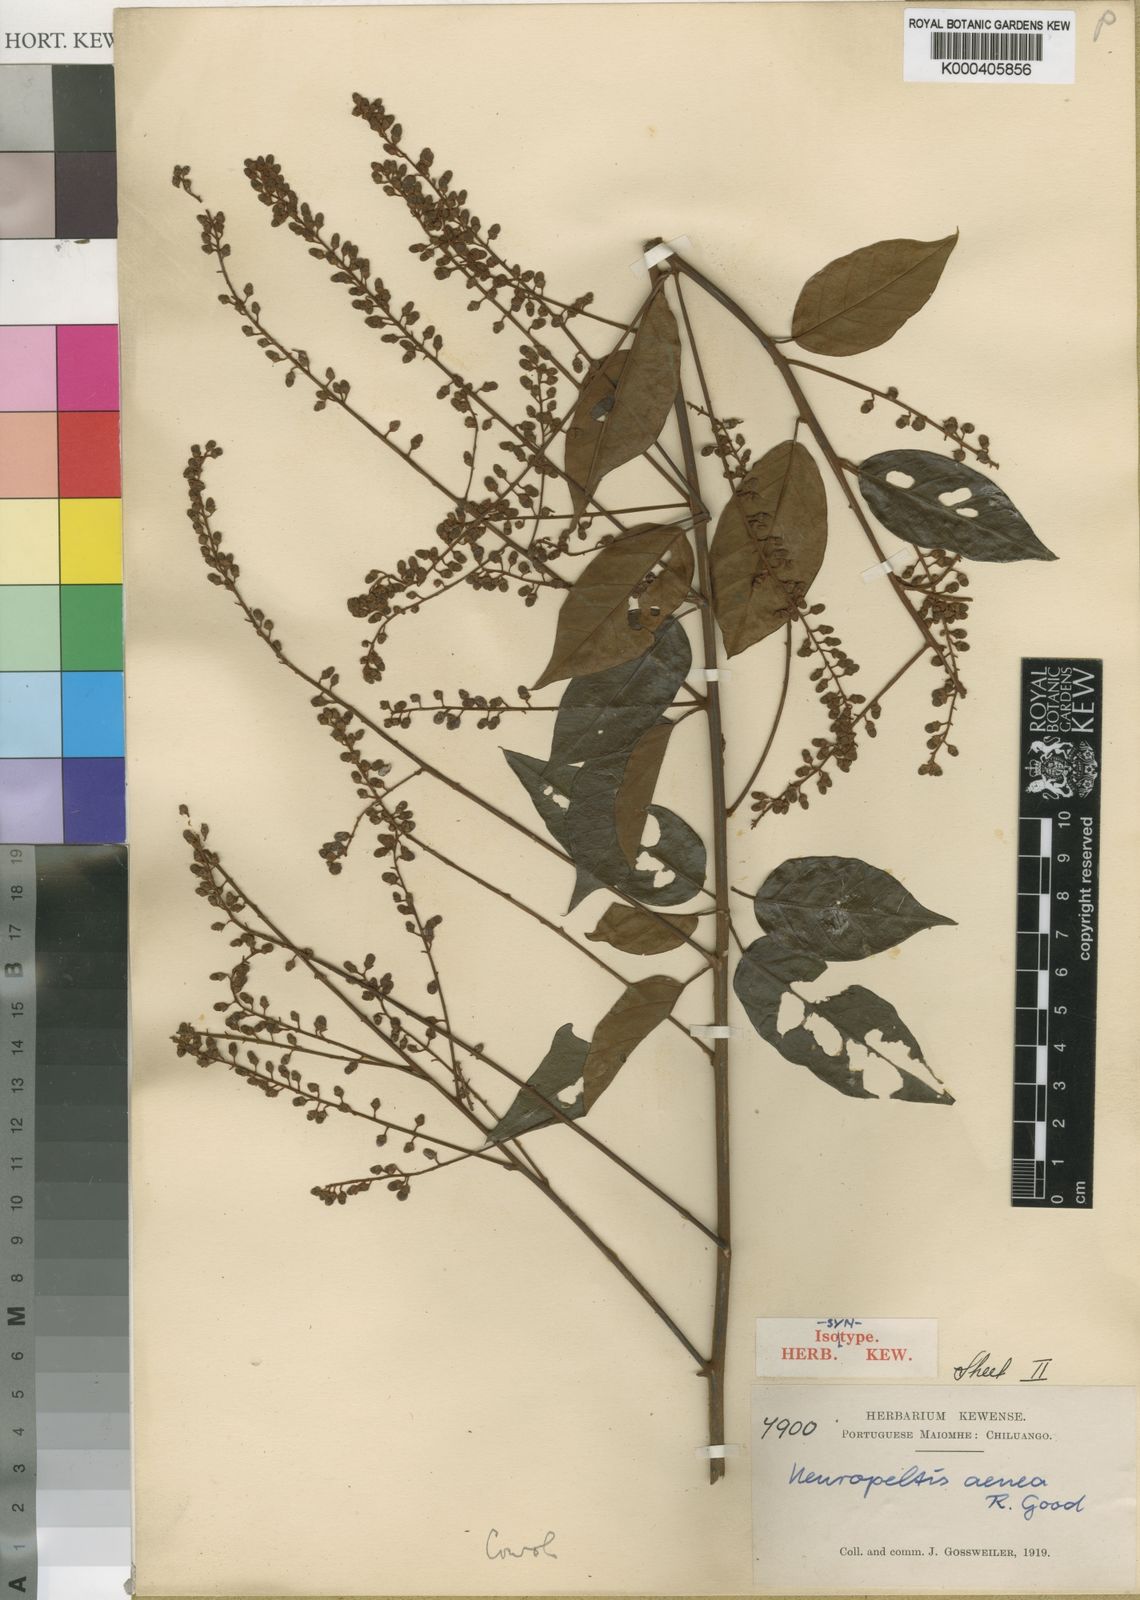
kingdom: Plantae
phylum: Tracheophyta
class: Magnoliopsida
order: Solanales
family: Convolvulaceae
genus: Neuropeltis
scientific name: Neuropeltis aenea
